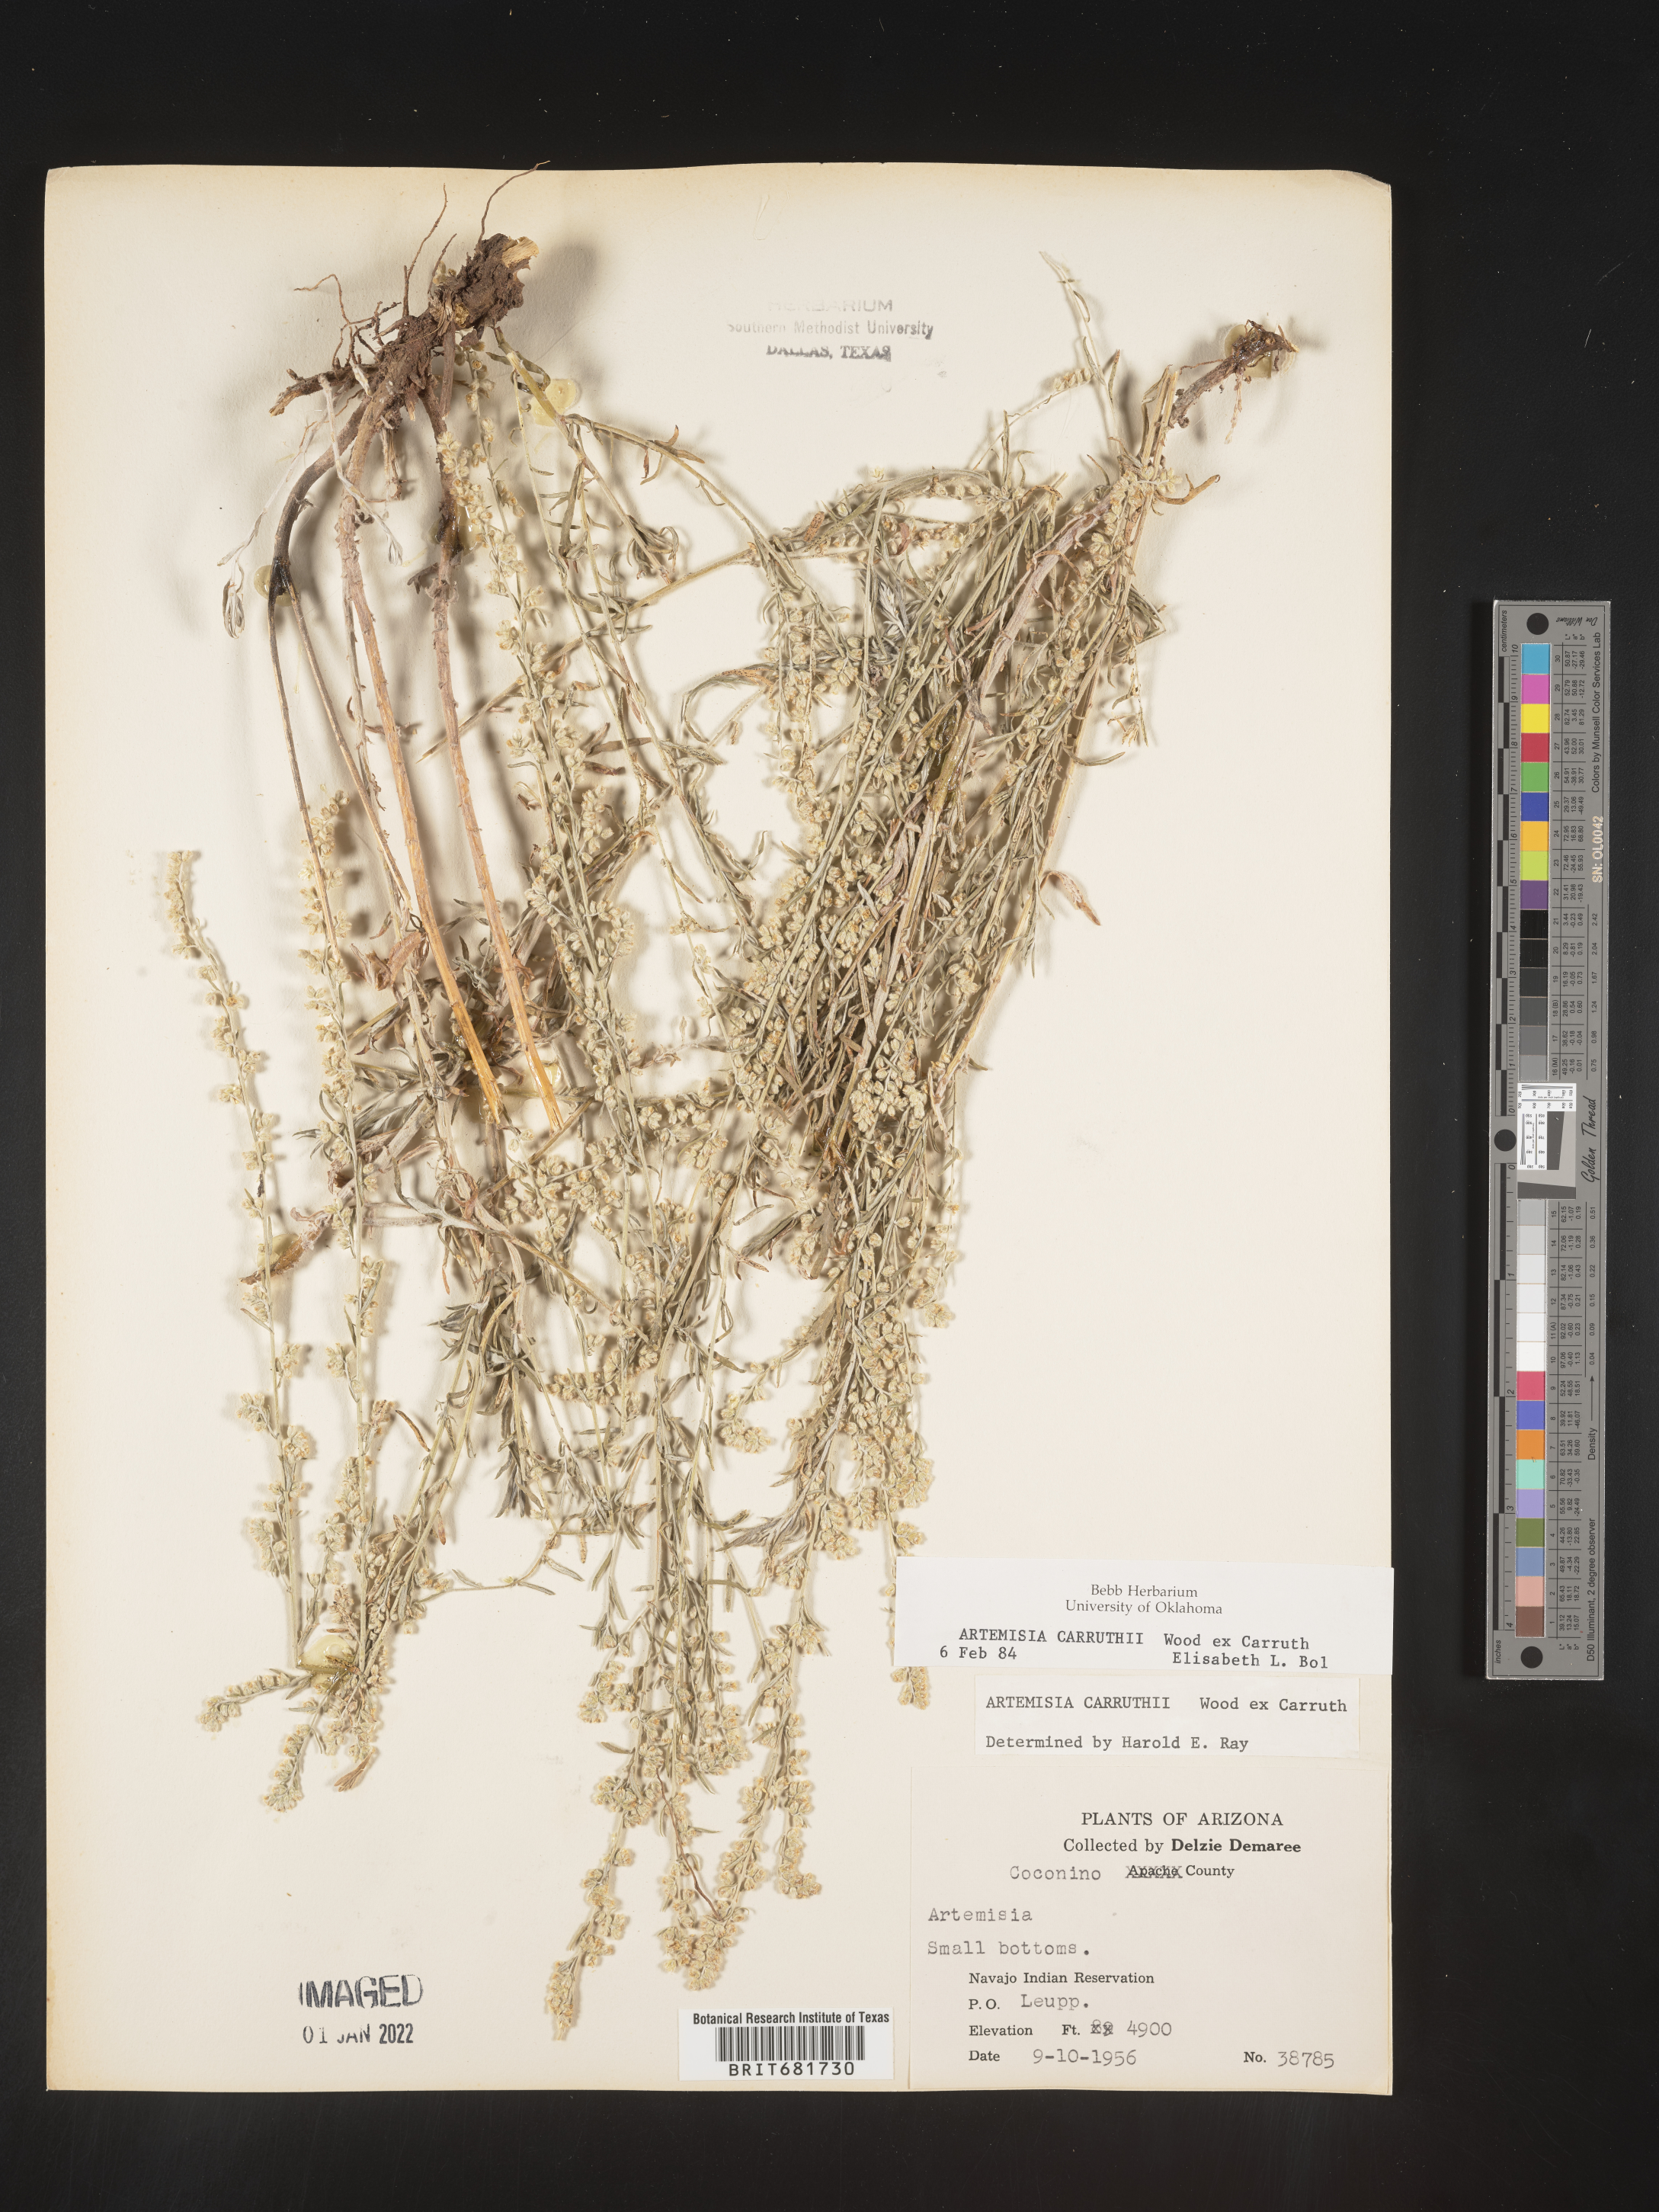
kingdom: Plantae
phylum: Tracheophyta
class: Magnoliopsida
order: Asterales
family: Asteraceae
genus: Artemisia
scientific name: Artemisia carruthii
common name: Carruth wormwood
